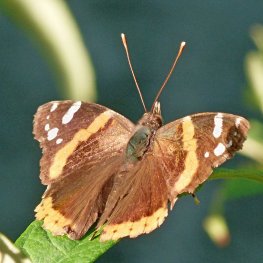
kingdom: Animalia
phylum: Arthropoda
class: Insecta
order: Lepidoptera
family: Nymphalidae
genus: Vanessa
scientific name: Vanessa atalanta
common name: Red Admiral
